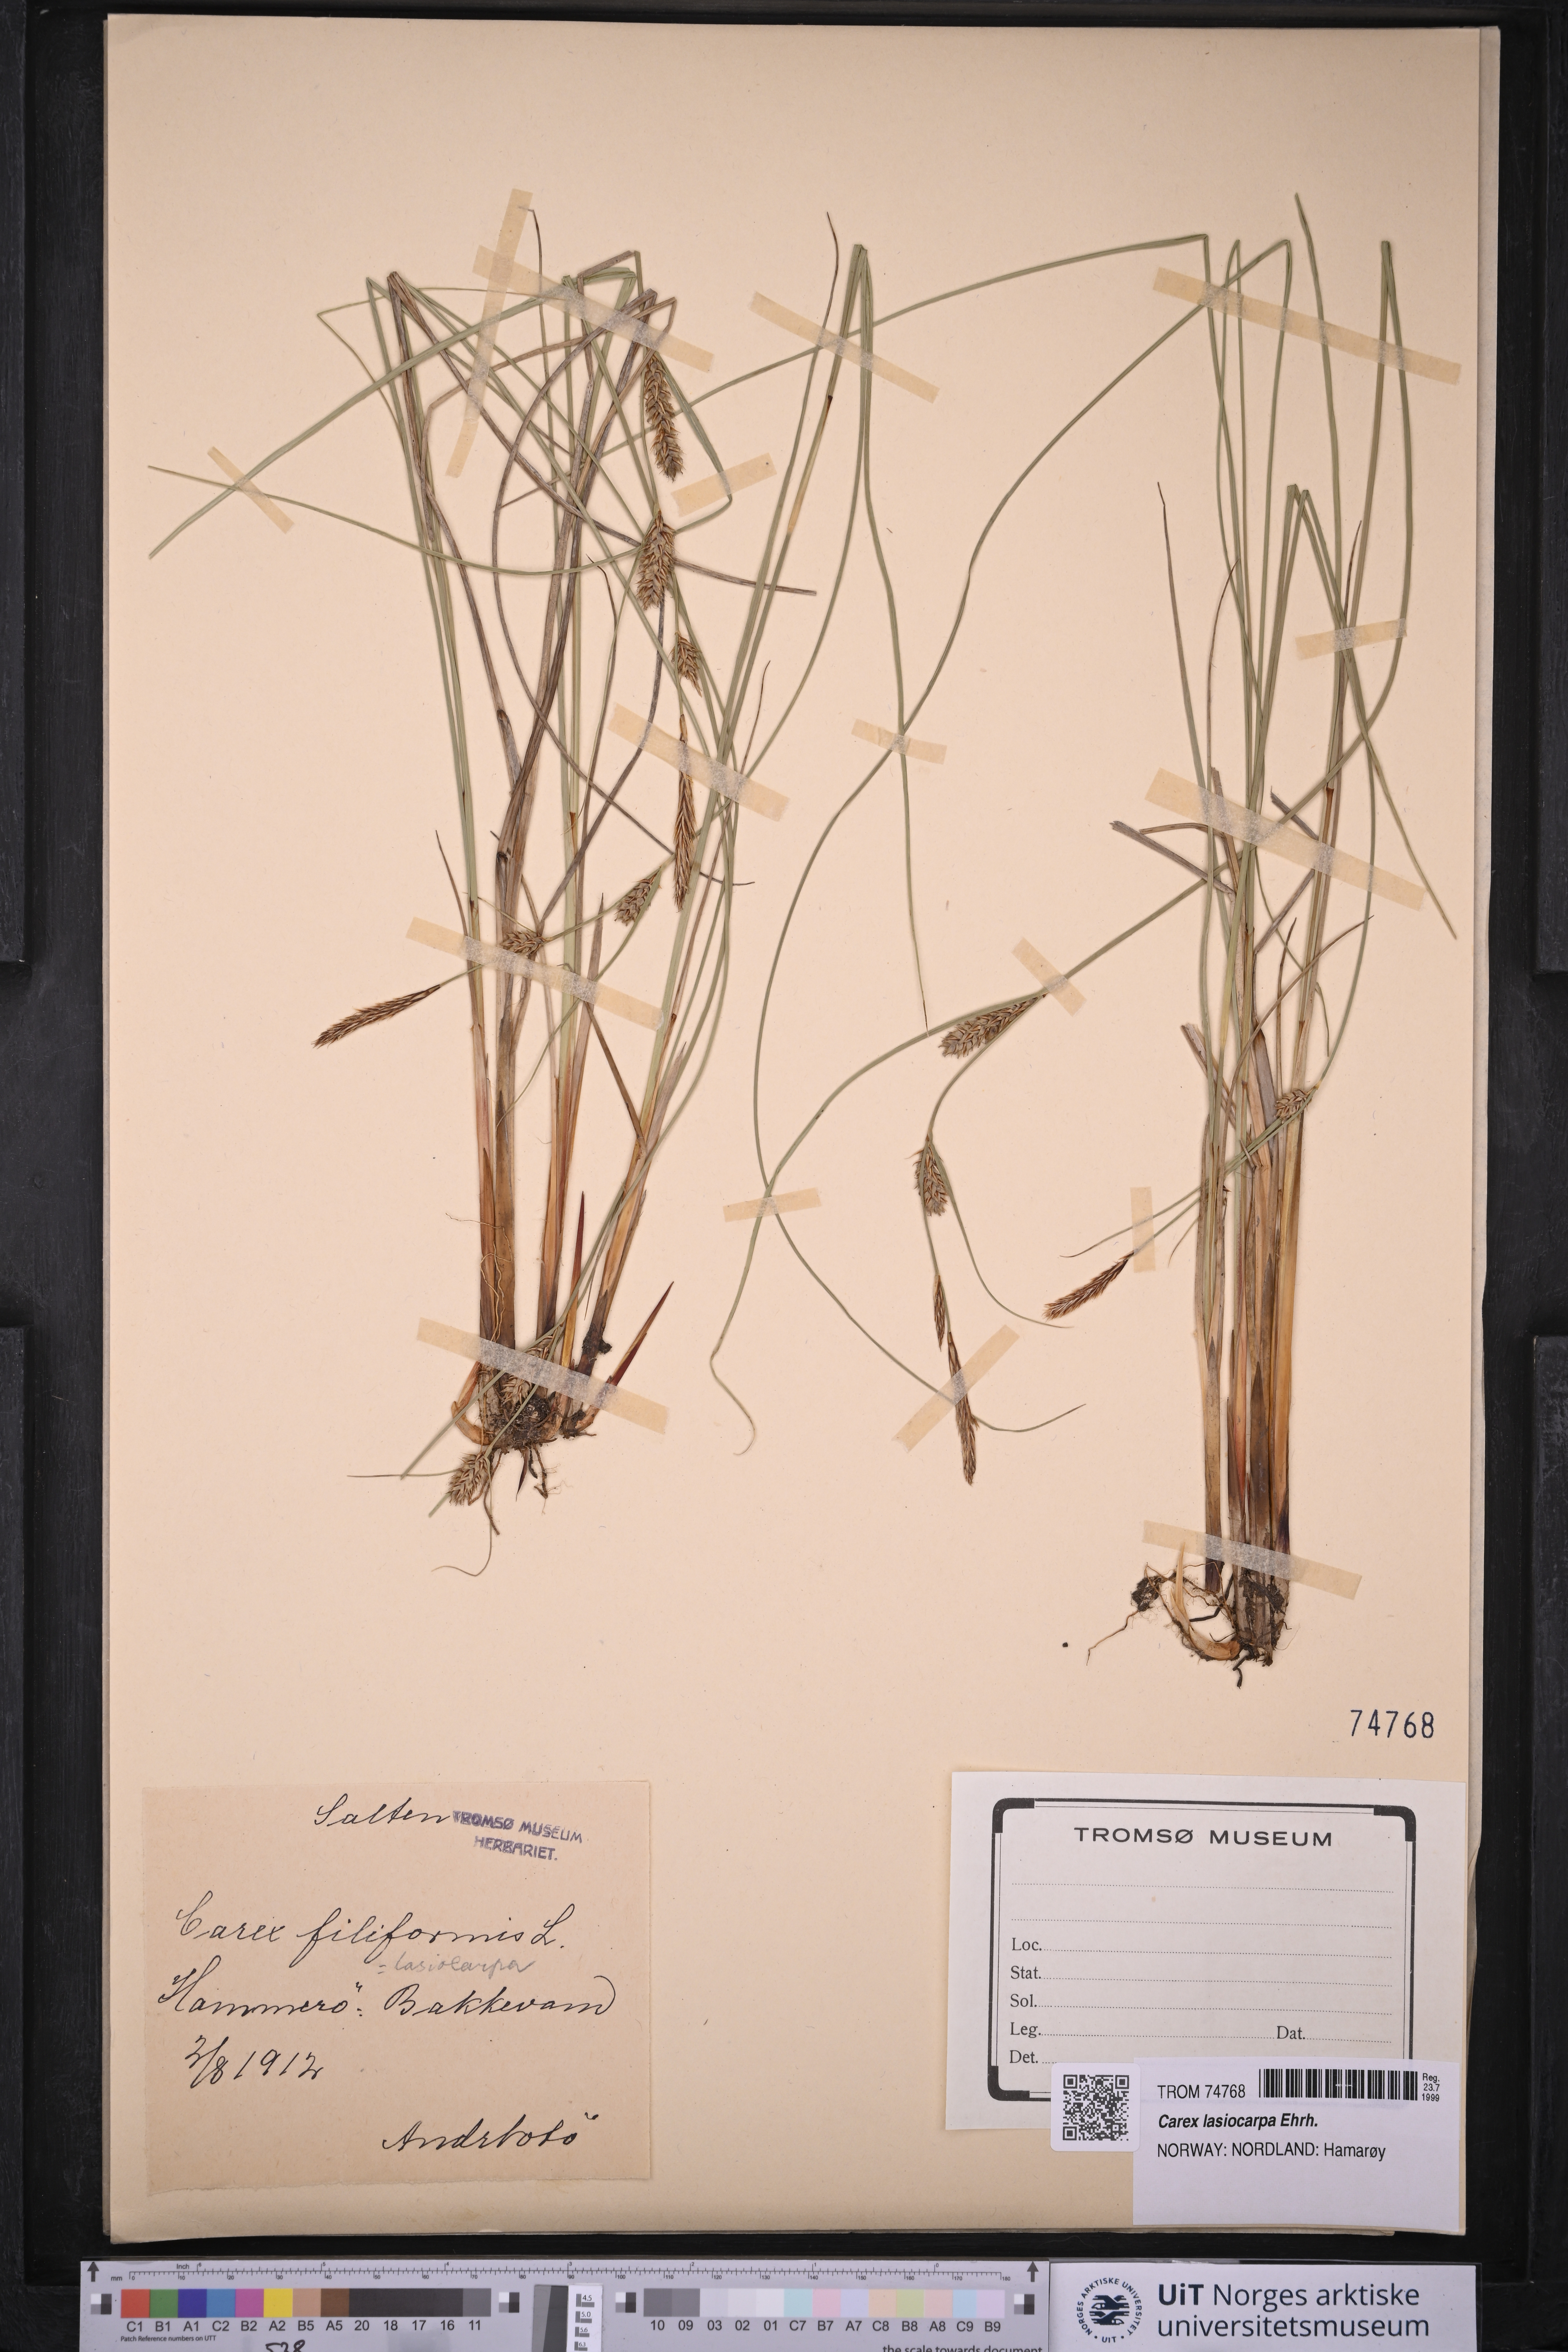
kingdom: Plantae
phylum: Tracheophyta
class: Liliopsida
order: Poales
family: Cyperaceae
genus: Carex
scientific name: Carex montana
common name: Soft-leaved sedge
